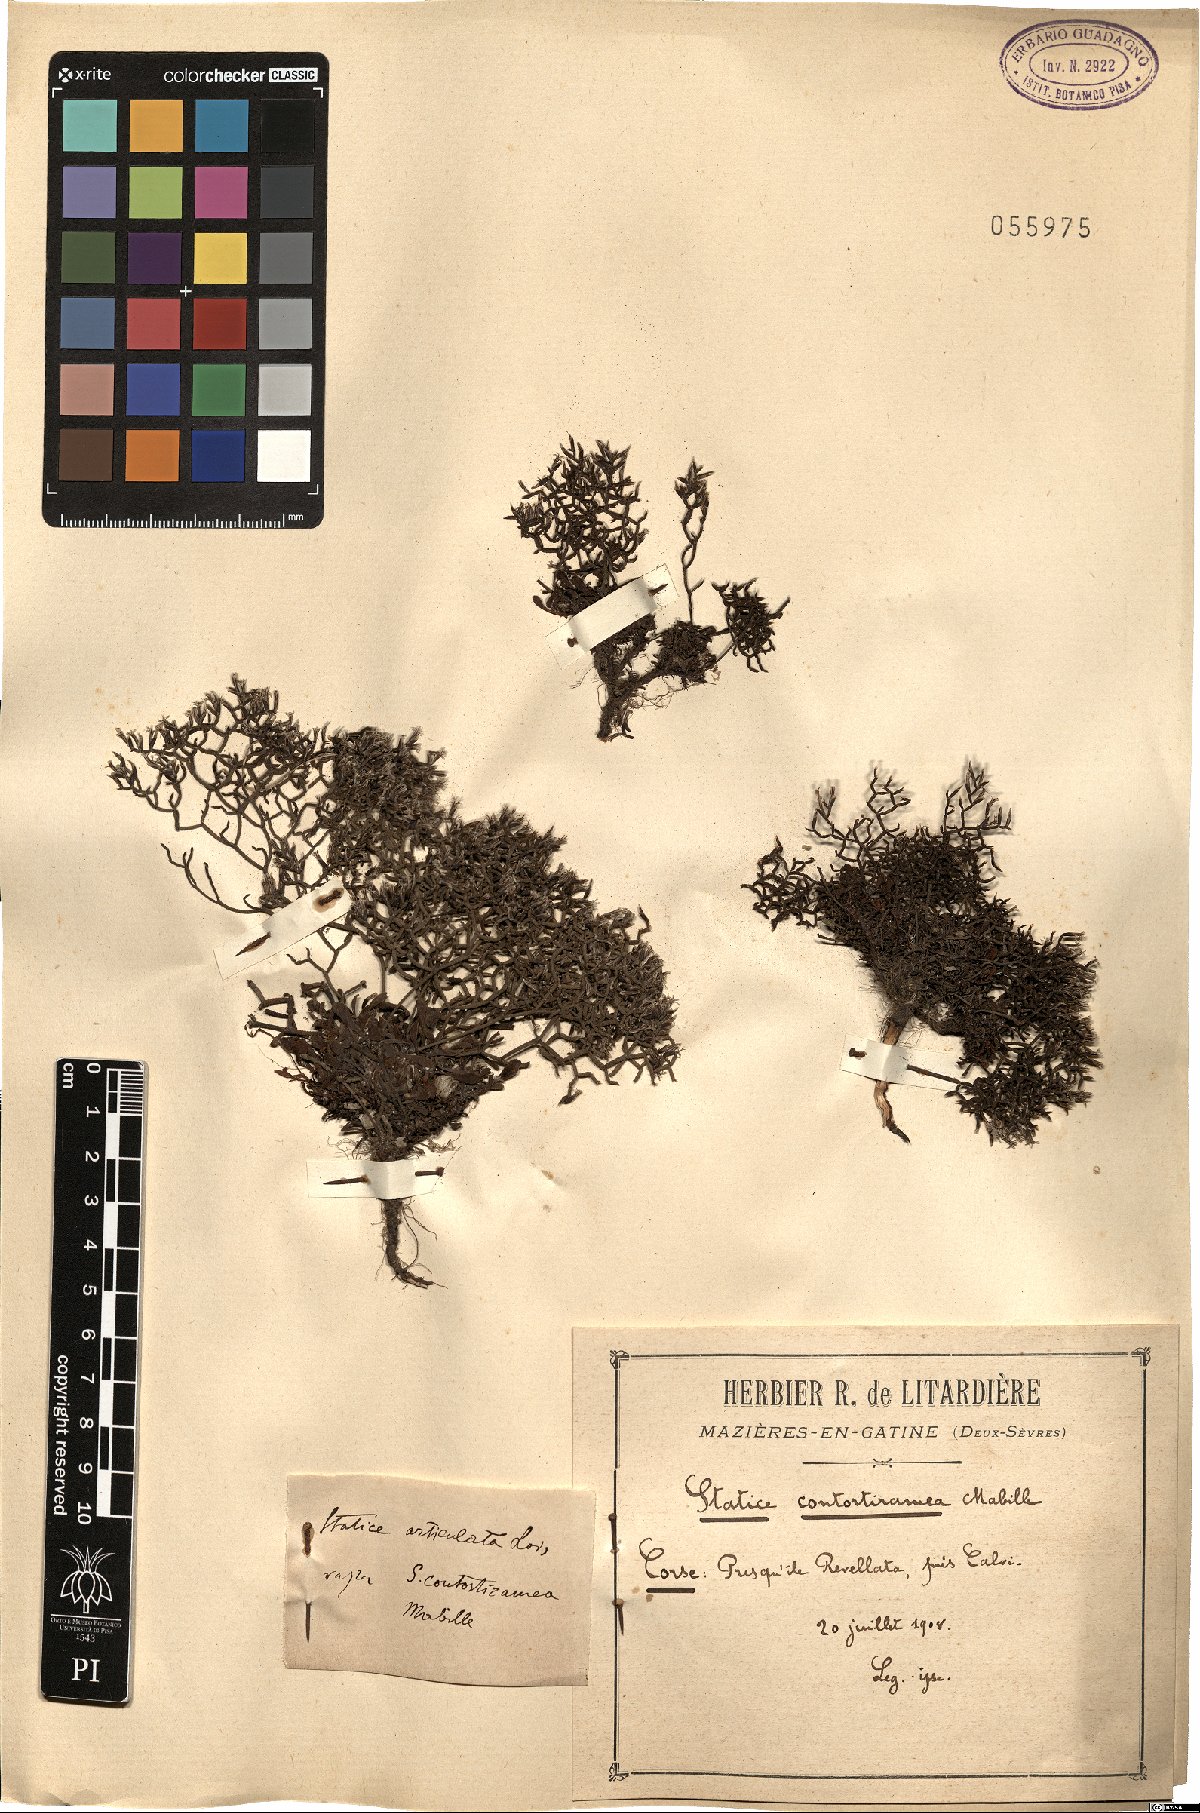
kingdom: Plantae
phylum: Tracheophyta
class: Magnoliopsida
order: Caryophyllales
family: Plumbaginaceae
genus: Limonium
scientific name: Limonium contortirameum
